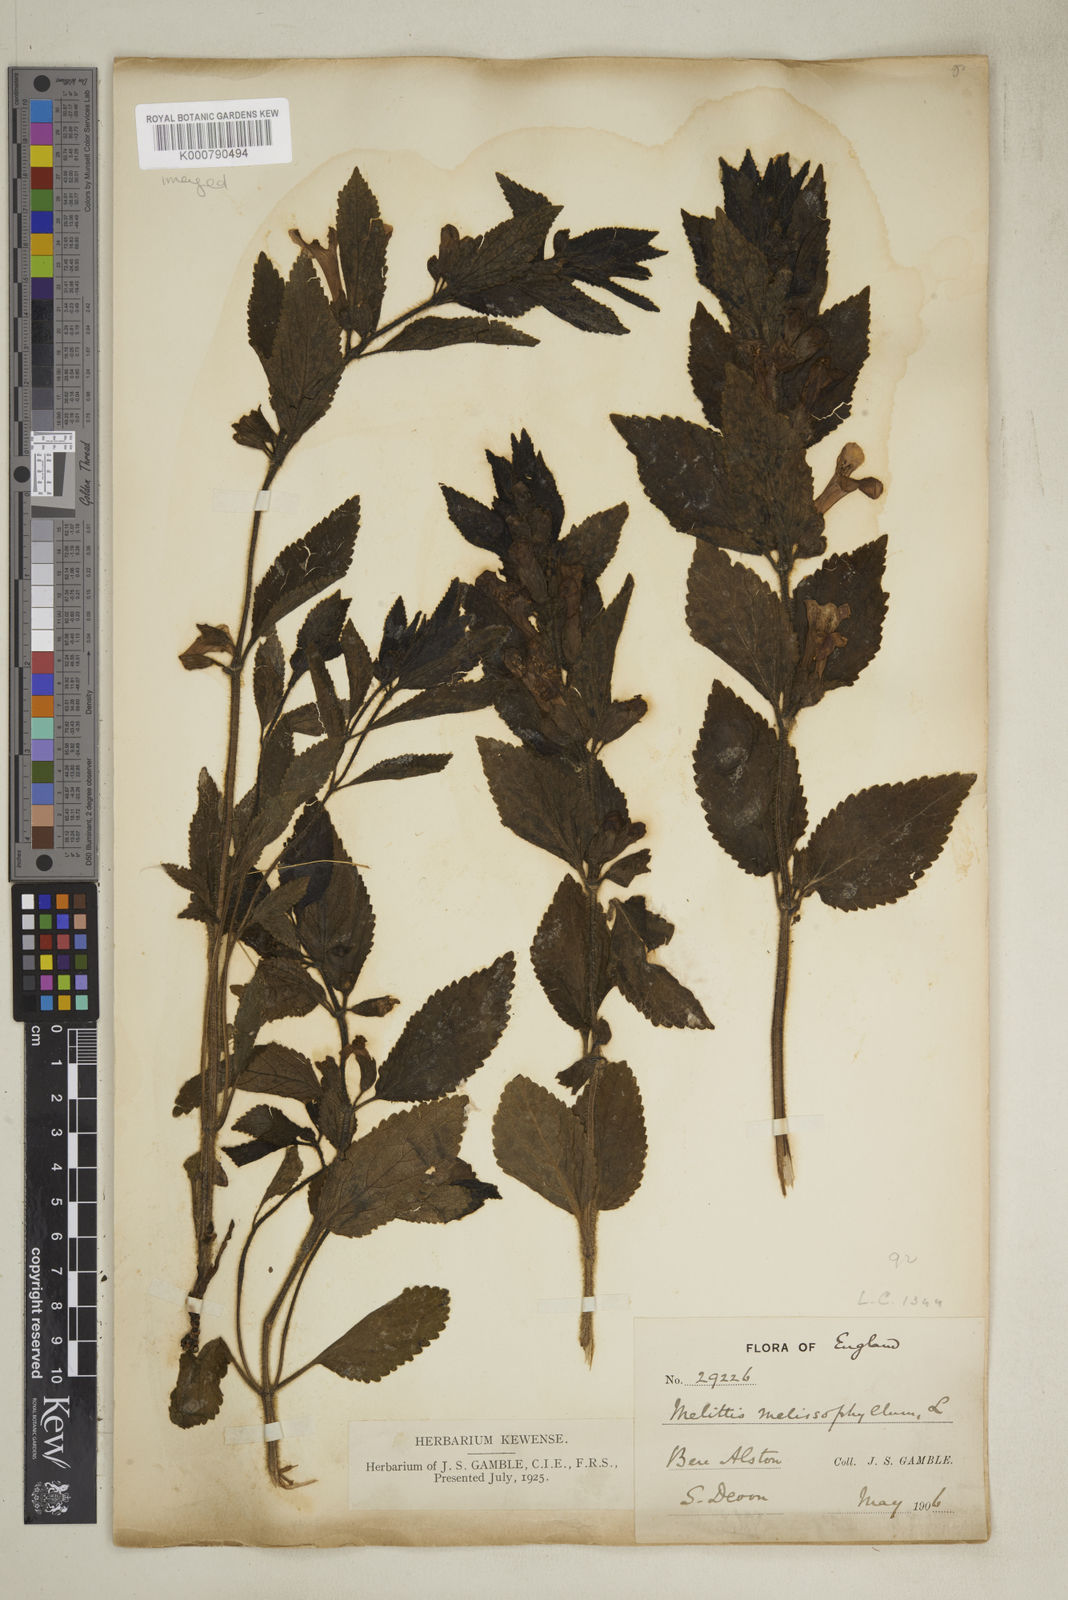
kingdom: Plantae
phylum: Tracheophyta
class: Magnoliopsida
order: Lamiales
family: Lamiaceae
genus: Melittis
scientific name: Melittis melissophyllum
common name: Bastard balm
